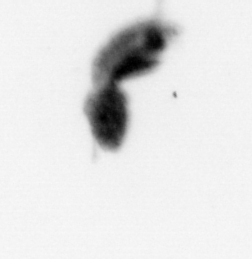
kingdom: Animalia
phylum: Arthropoda
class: Copepoda
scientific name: Copepoda
